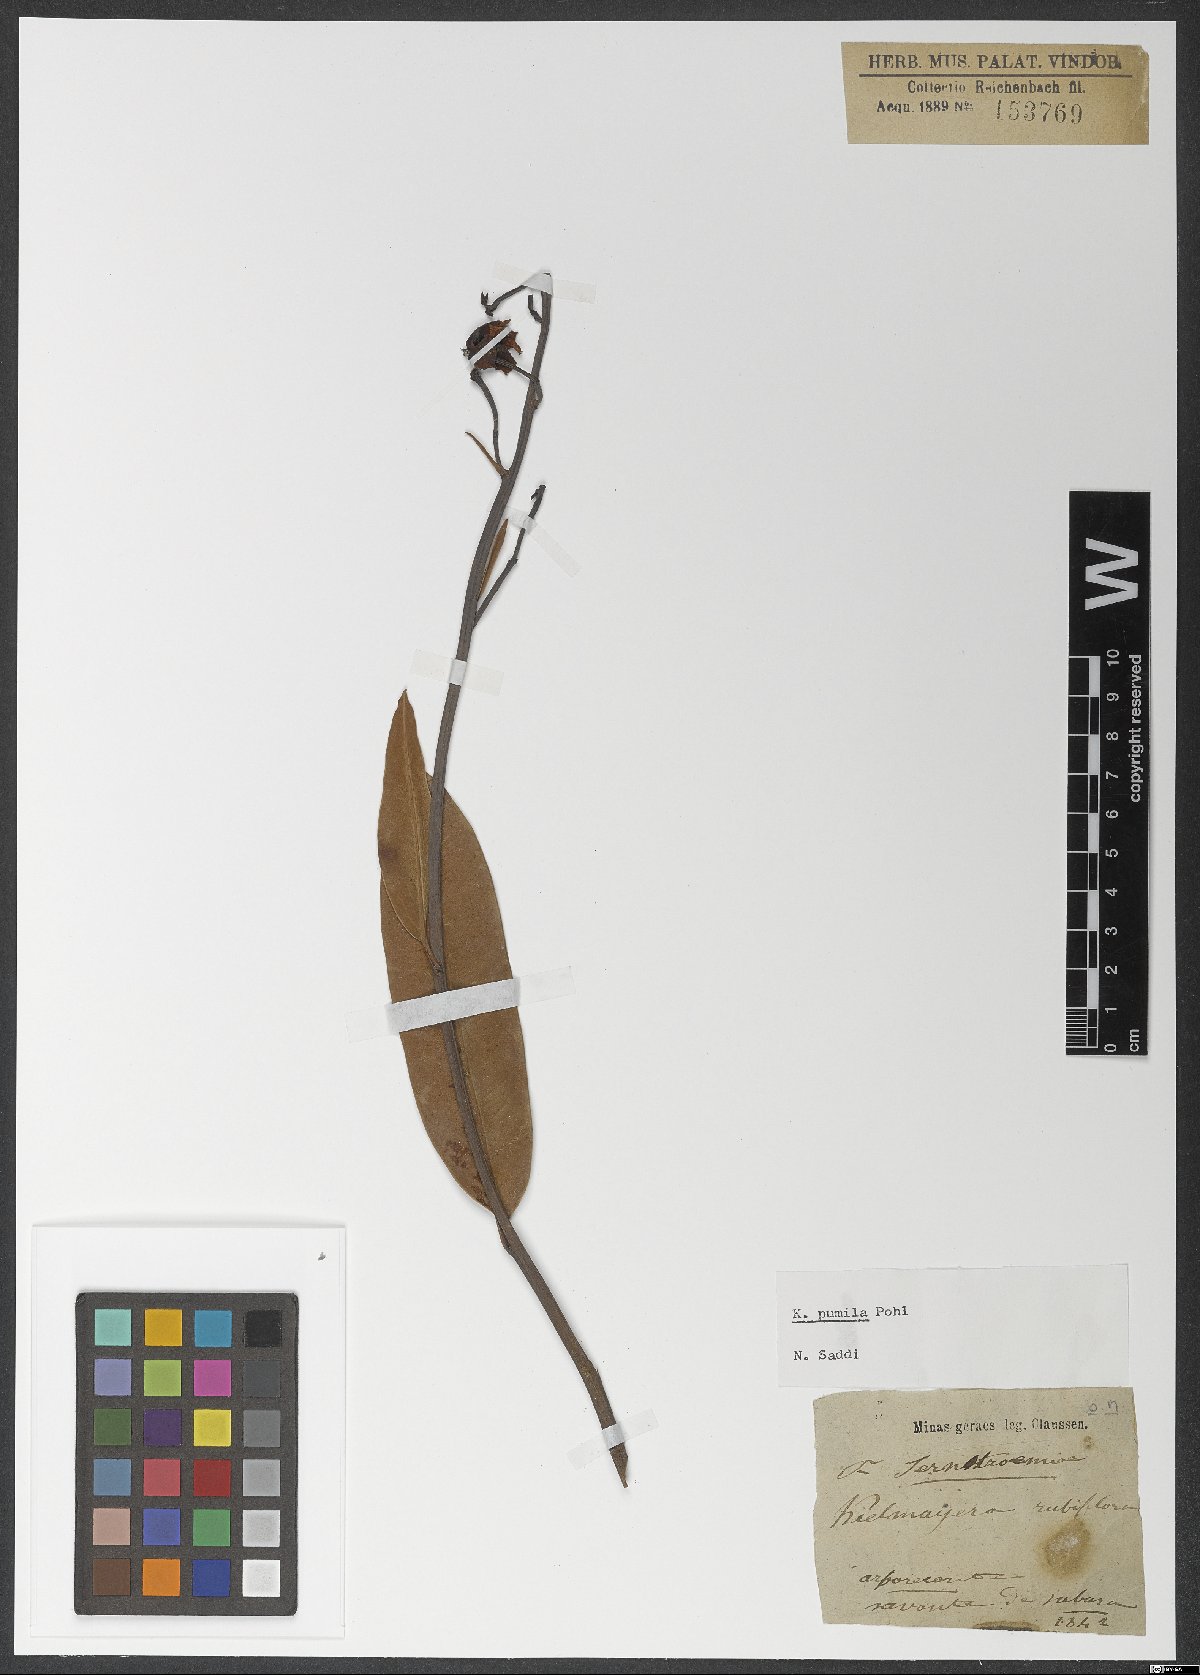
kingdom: Plantae
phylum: Tracheophyta
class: Magnoliopsida
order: Malpighiales
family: Calophyllaceae
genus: Kielmeyera
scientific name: Kielmeyera pumila
